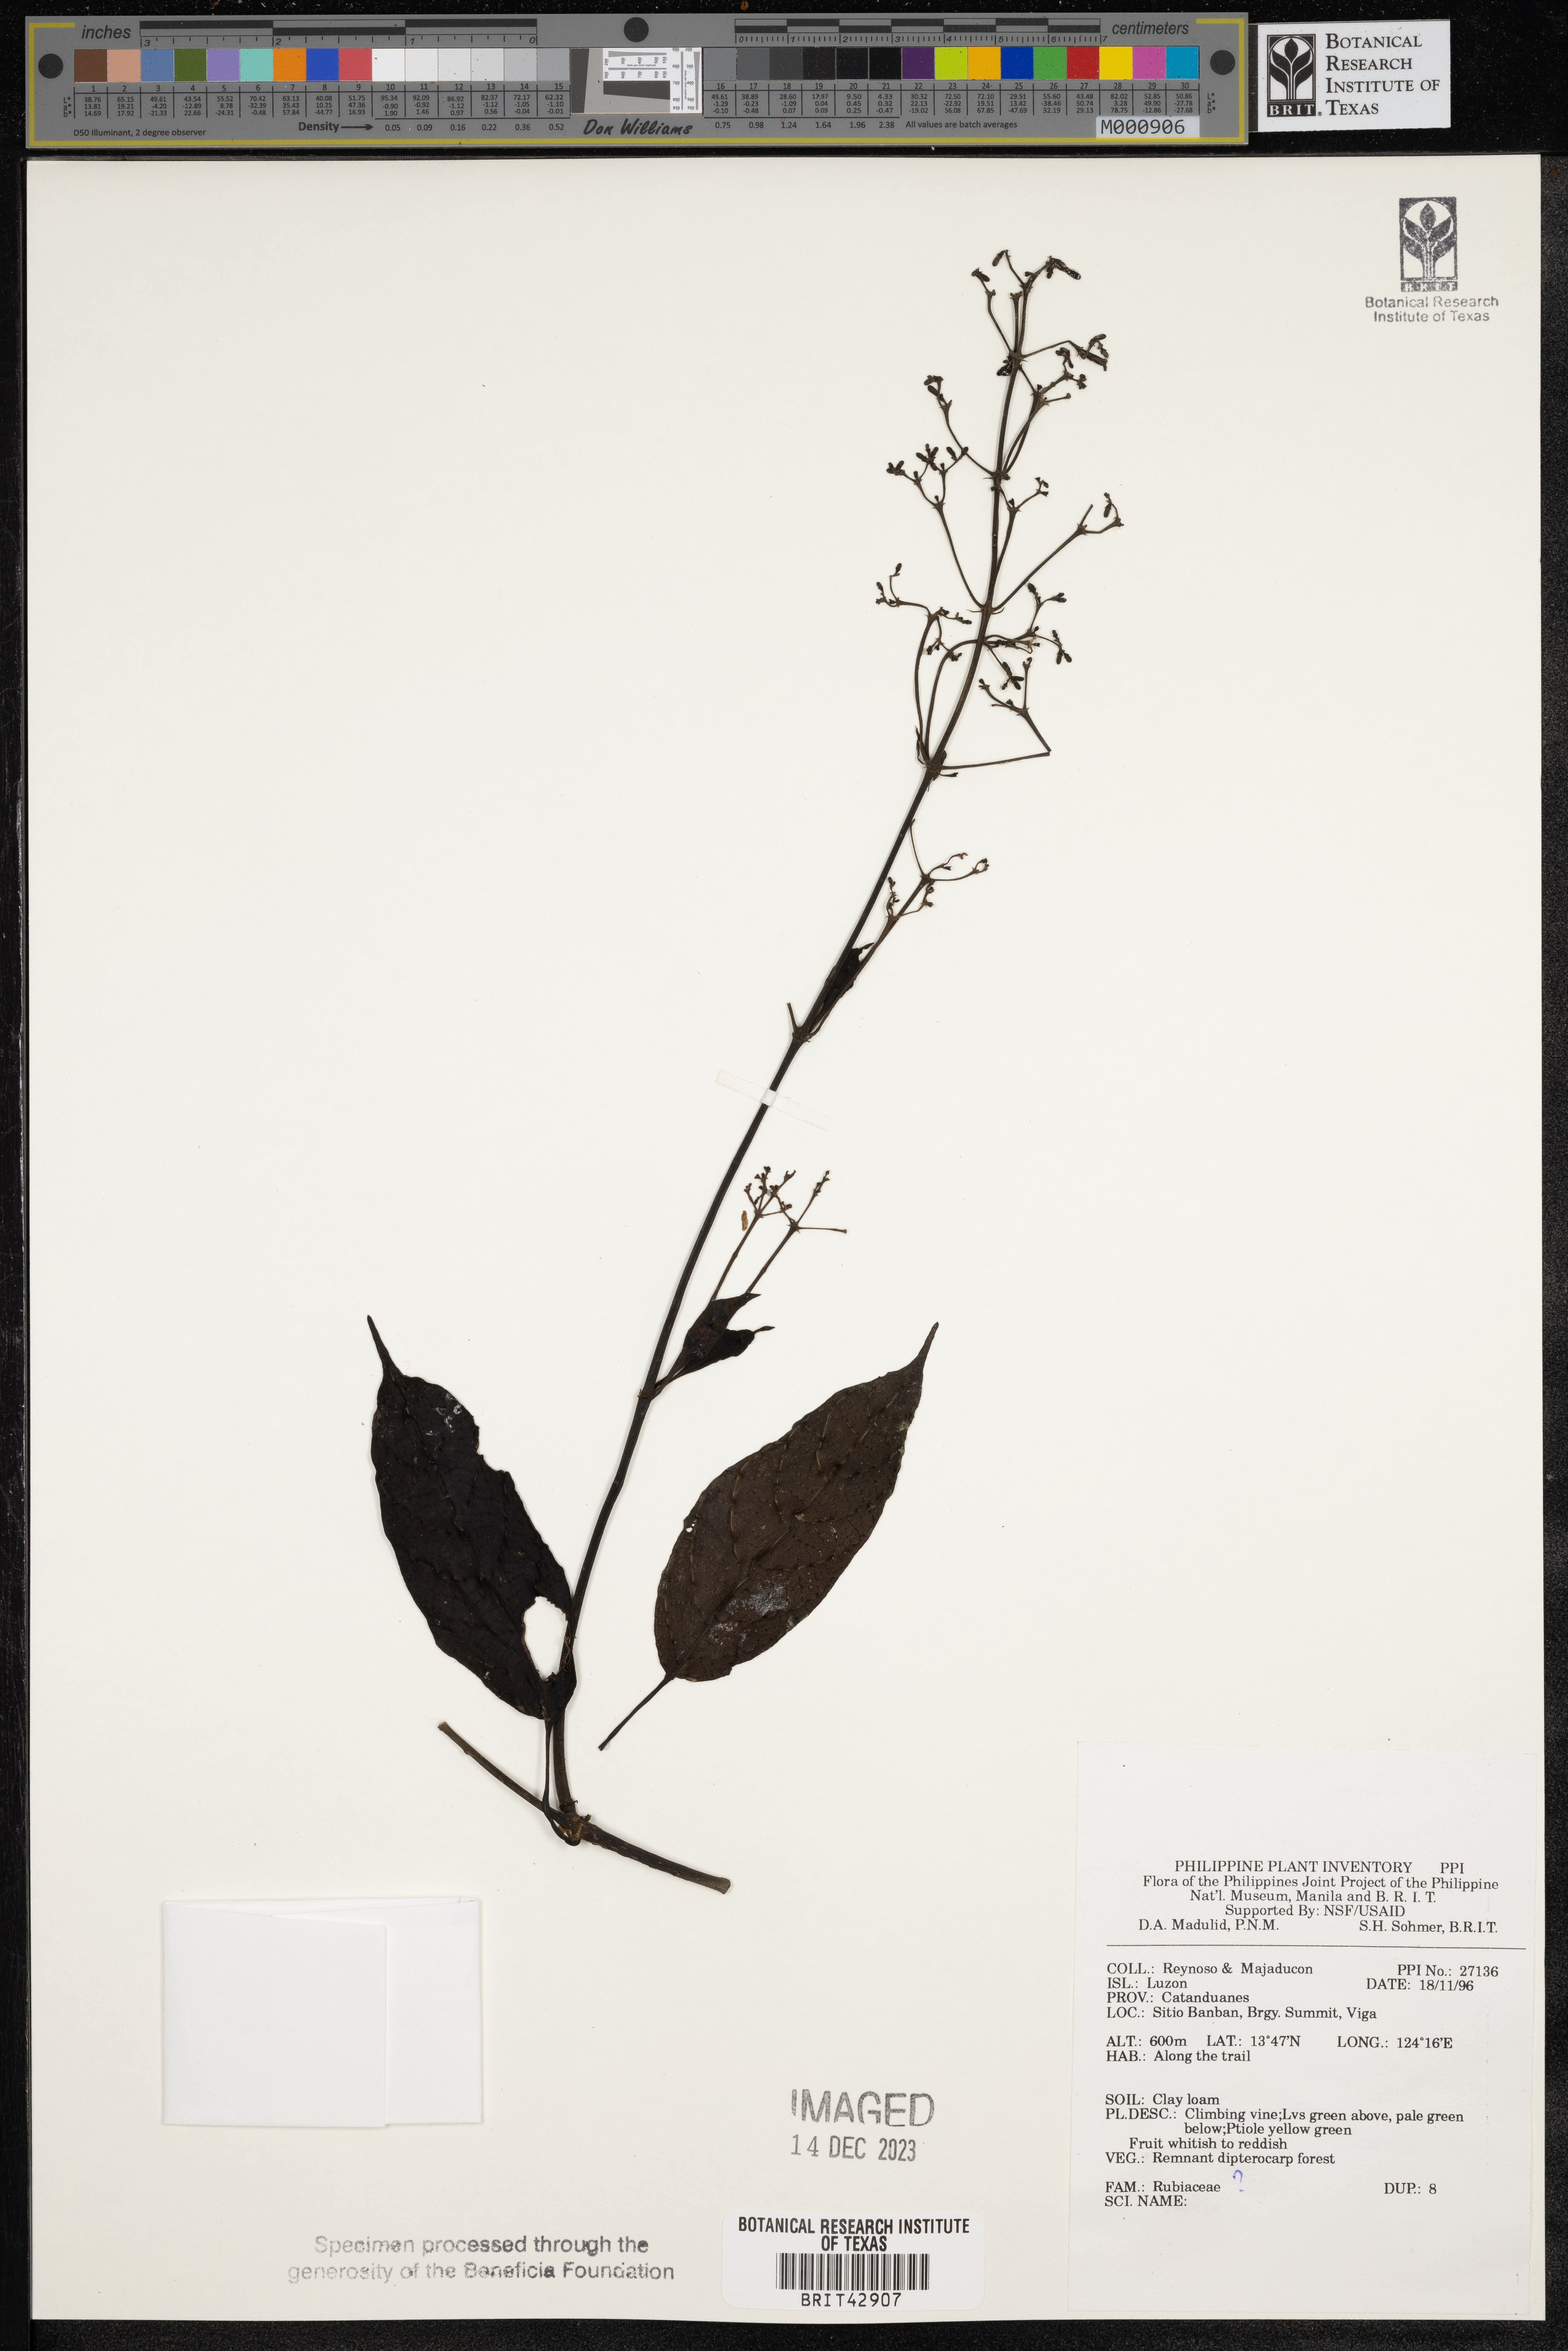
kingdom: Plantae
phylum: Tracheophyta
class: Magnoliopsida
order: Gentianales
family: Rubiaceae
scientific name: Rubiaceae
